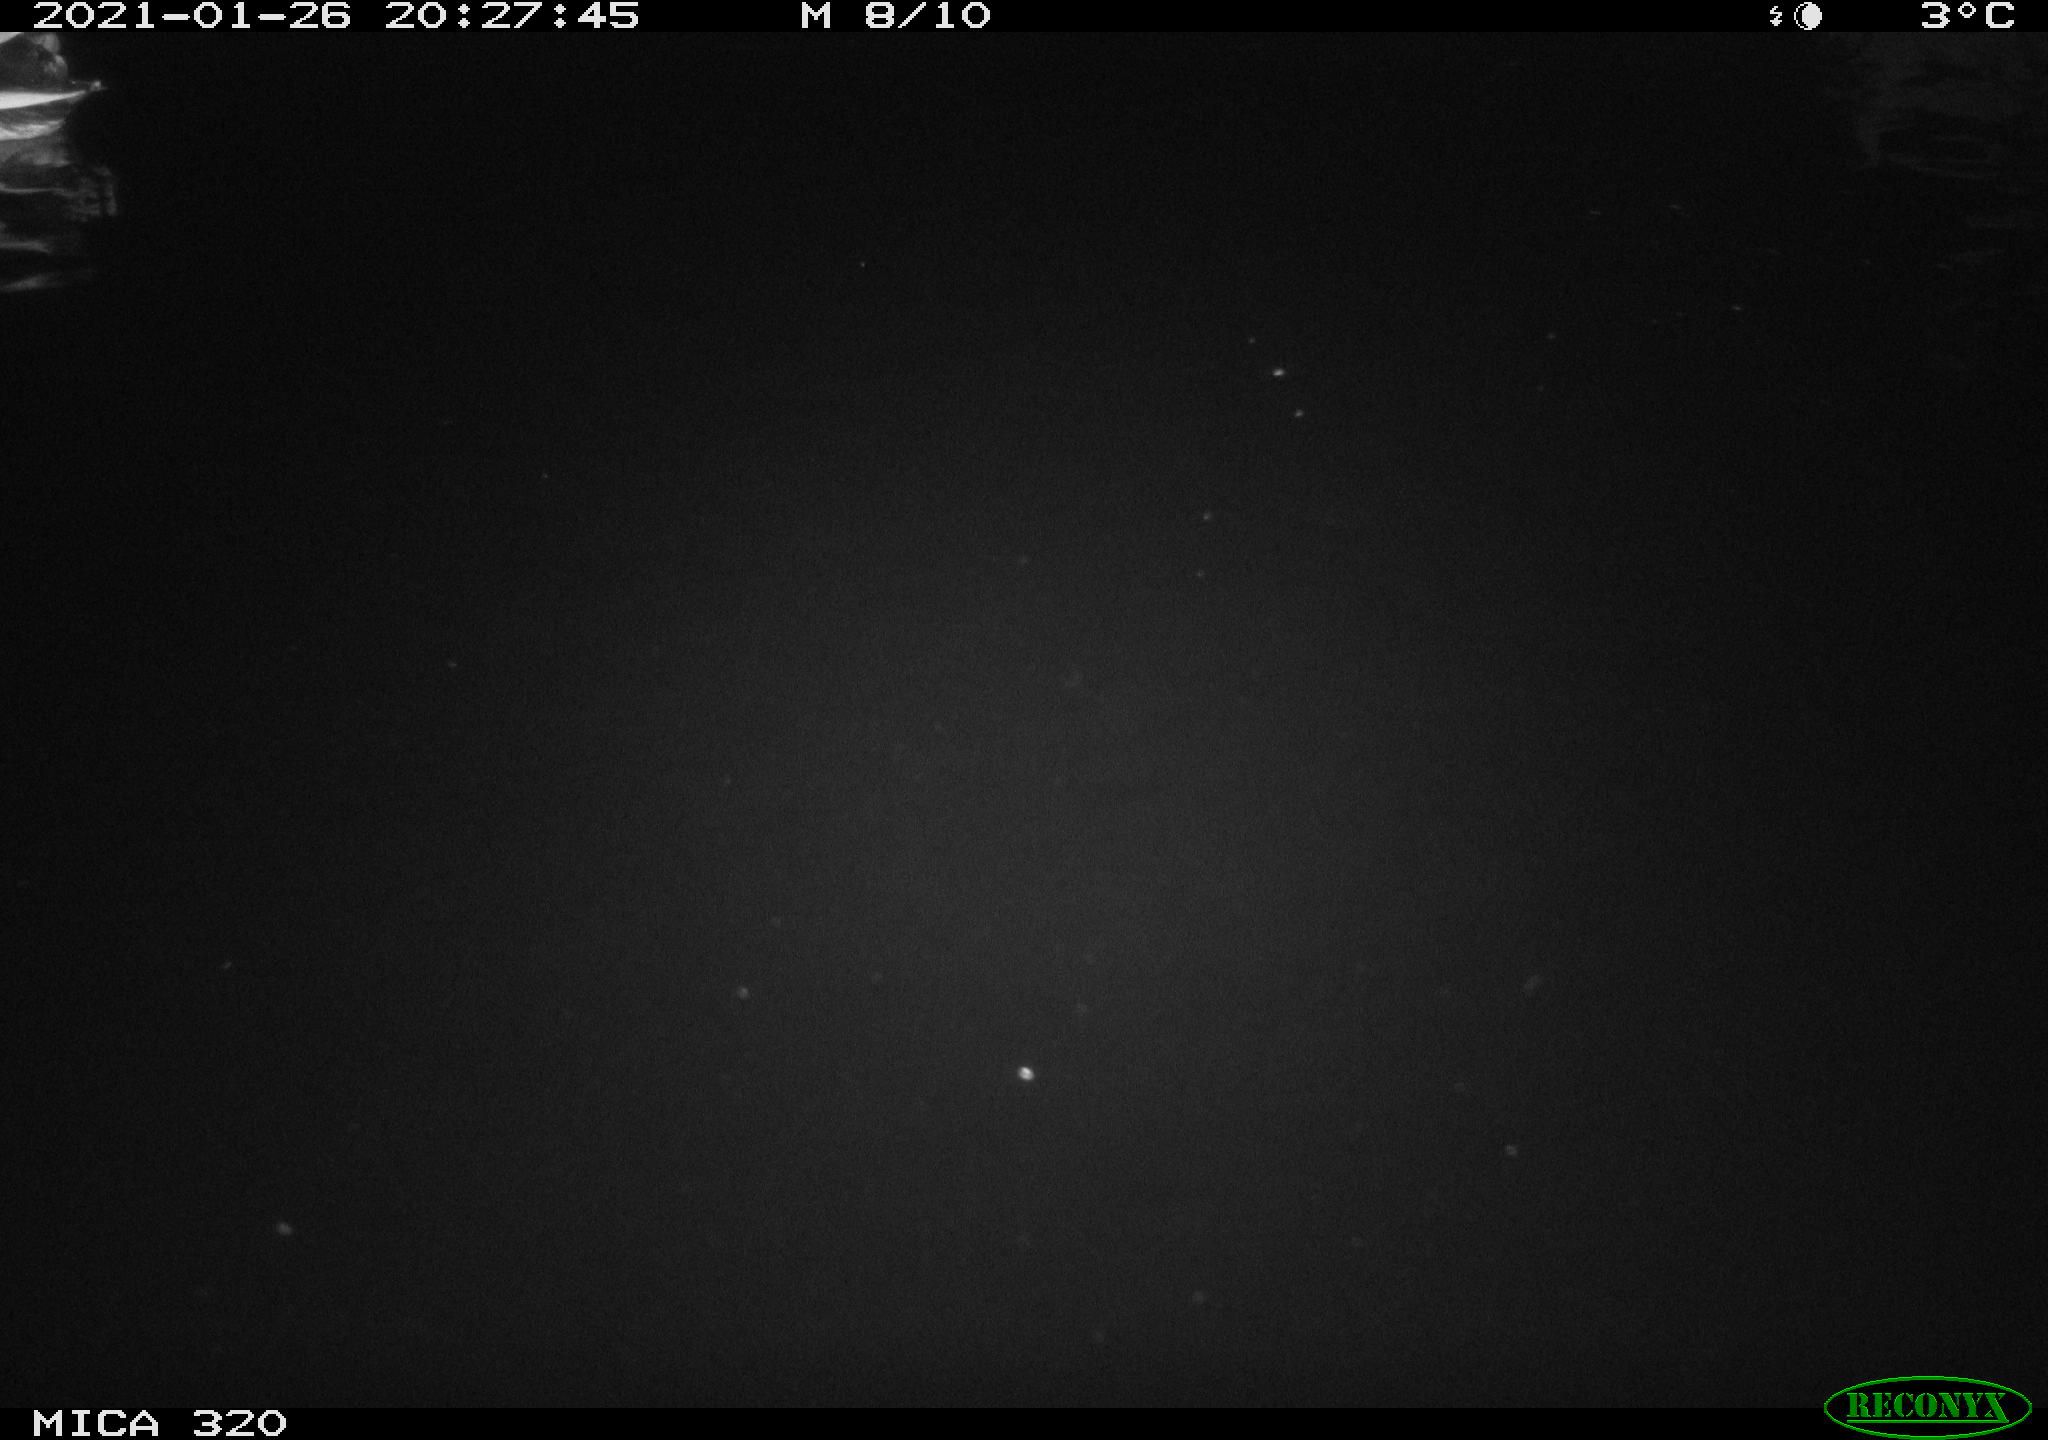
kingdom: Animalia
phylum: Chordata
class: Aves
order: Anseriformes
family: Anatidae
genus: Anas
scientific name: Anas platyrhynchos
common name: Mallard
